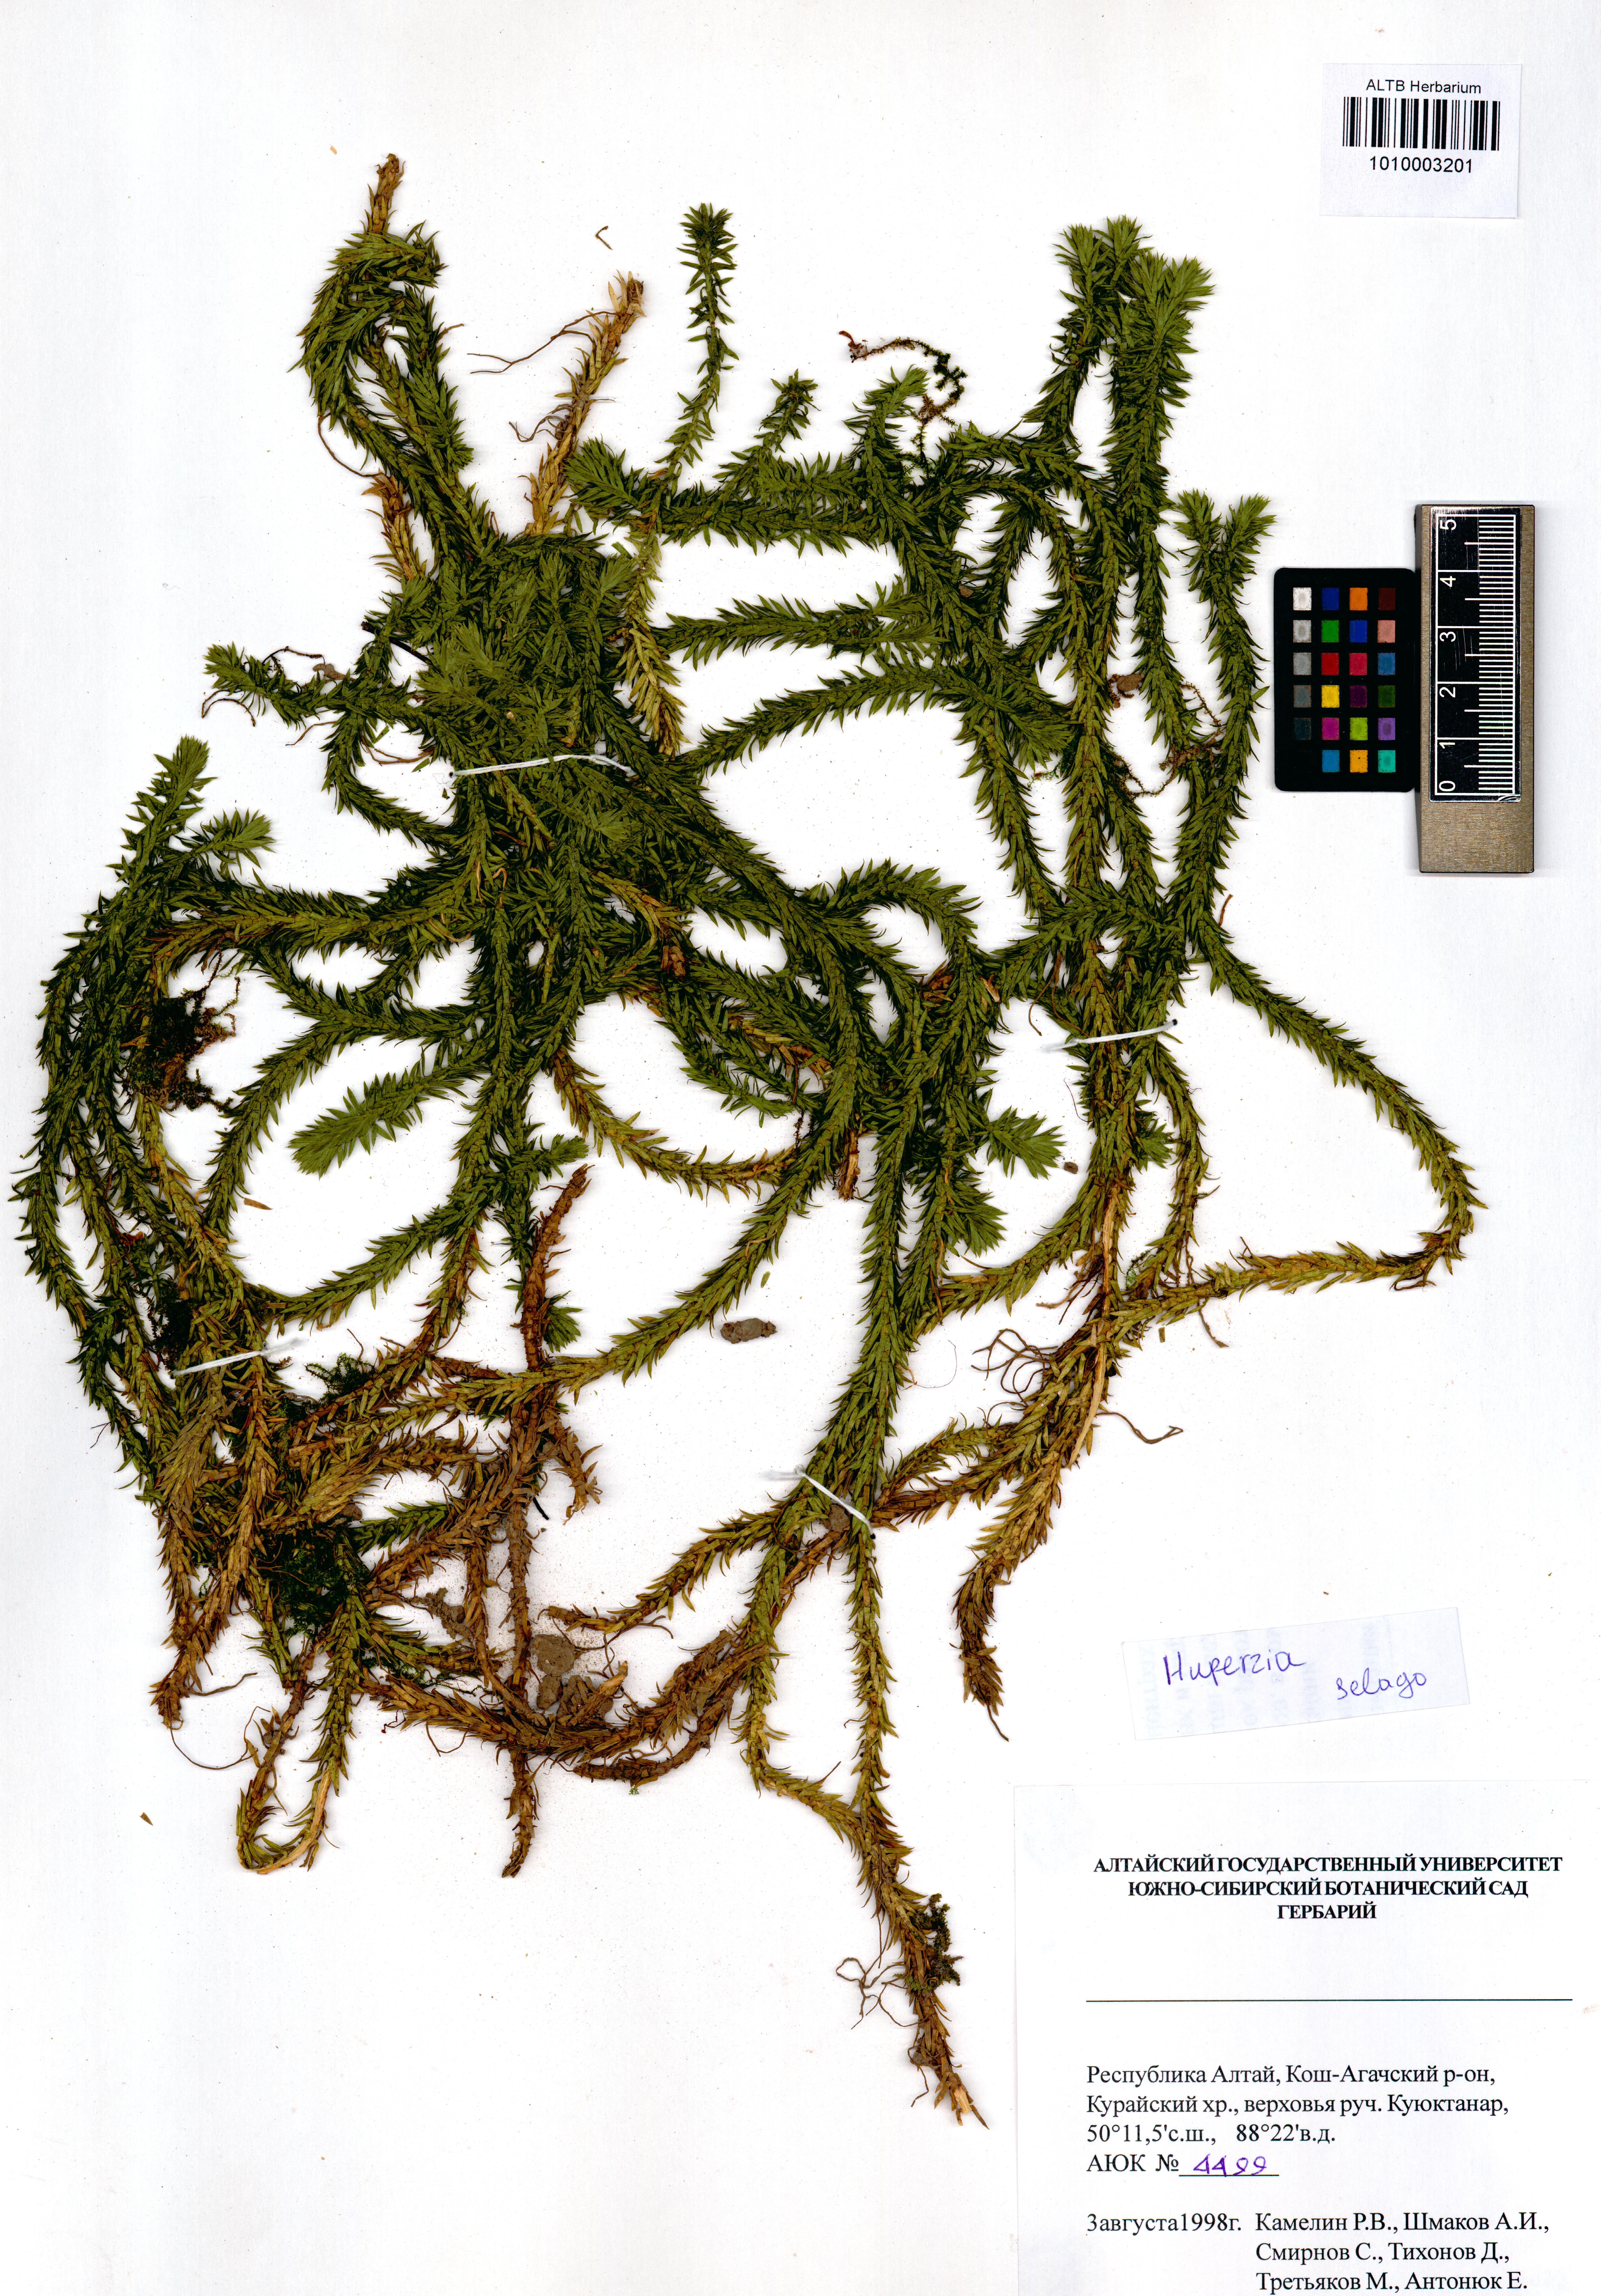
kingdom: Plantae
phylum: Tracheophyta
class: Lycopodiopsida
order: Lycopodiales
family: Lycopodiaceae
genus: Huperzia
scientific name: Huperzia selago
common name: Northern firmoss
